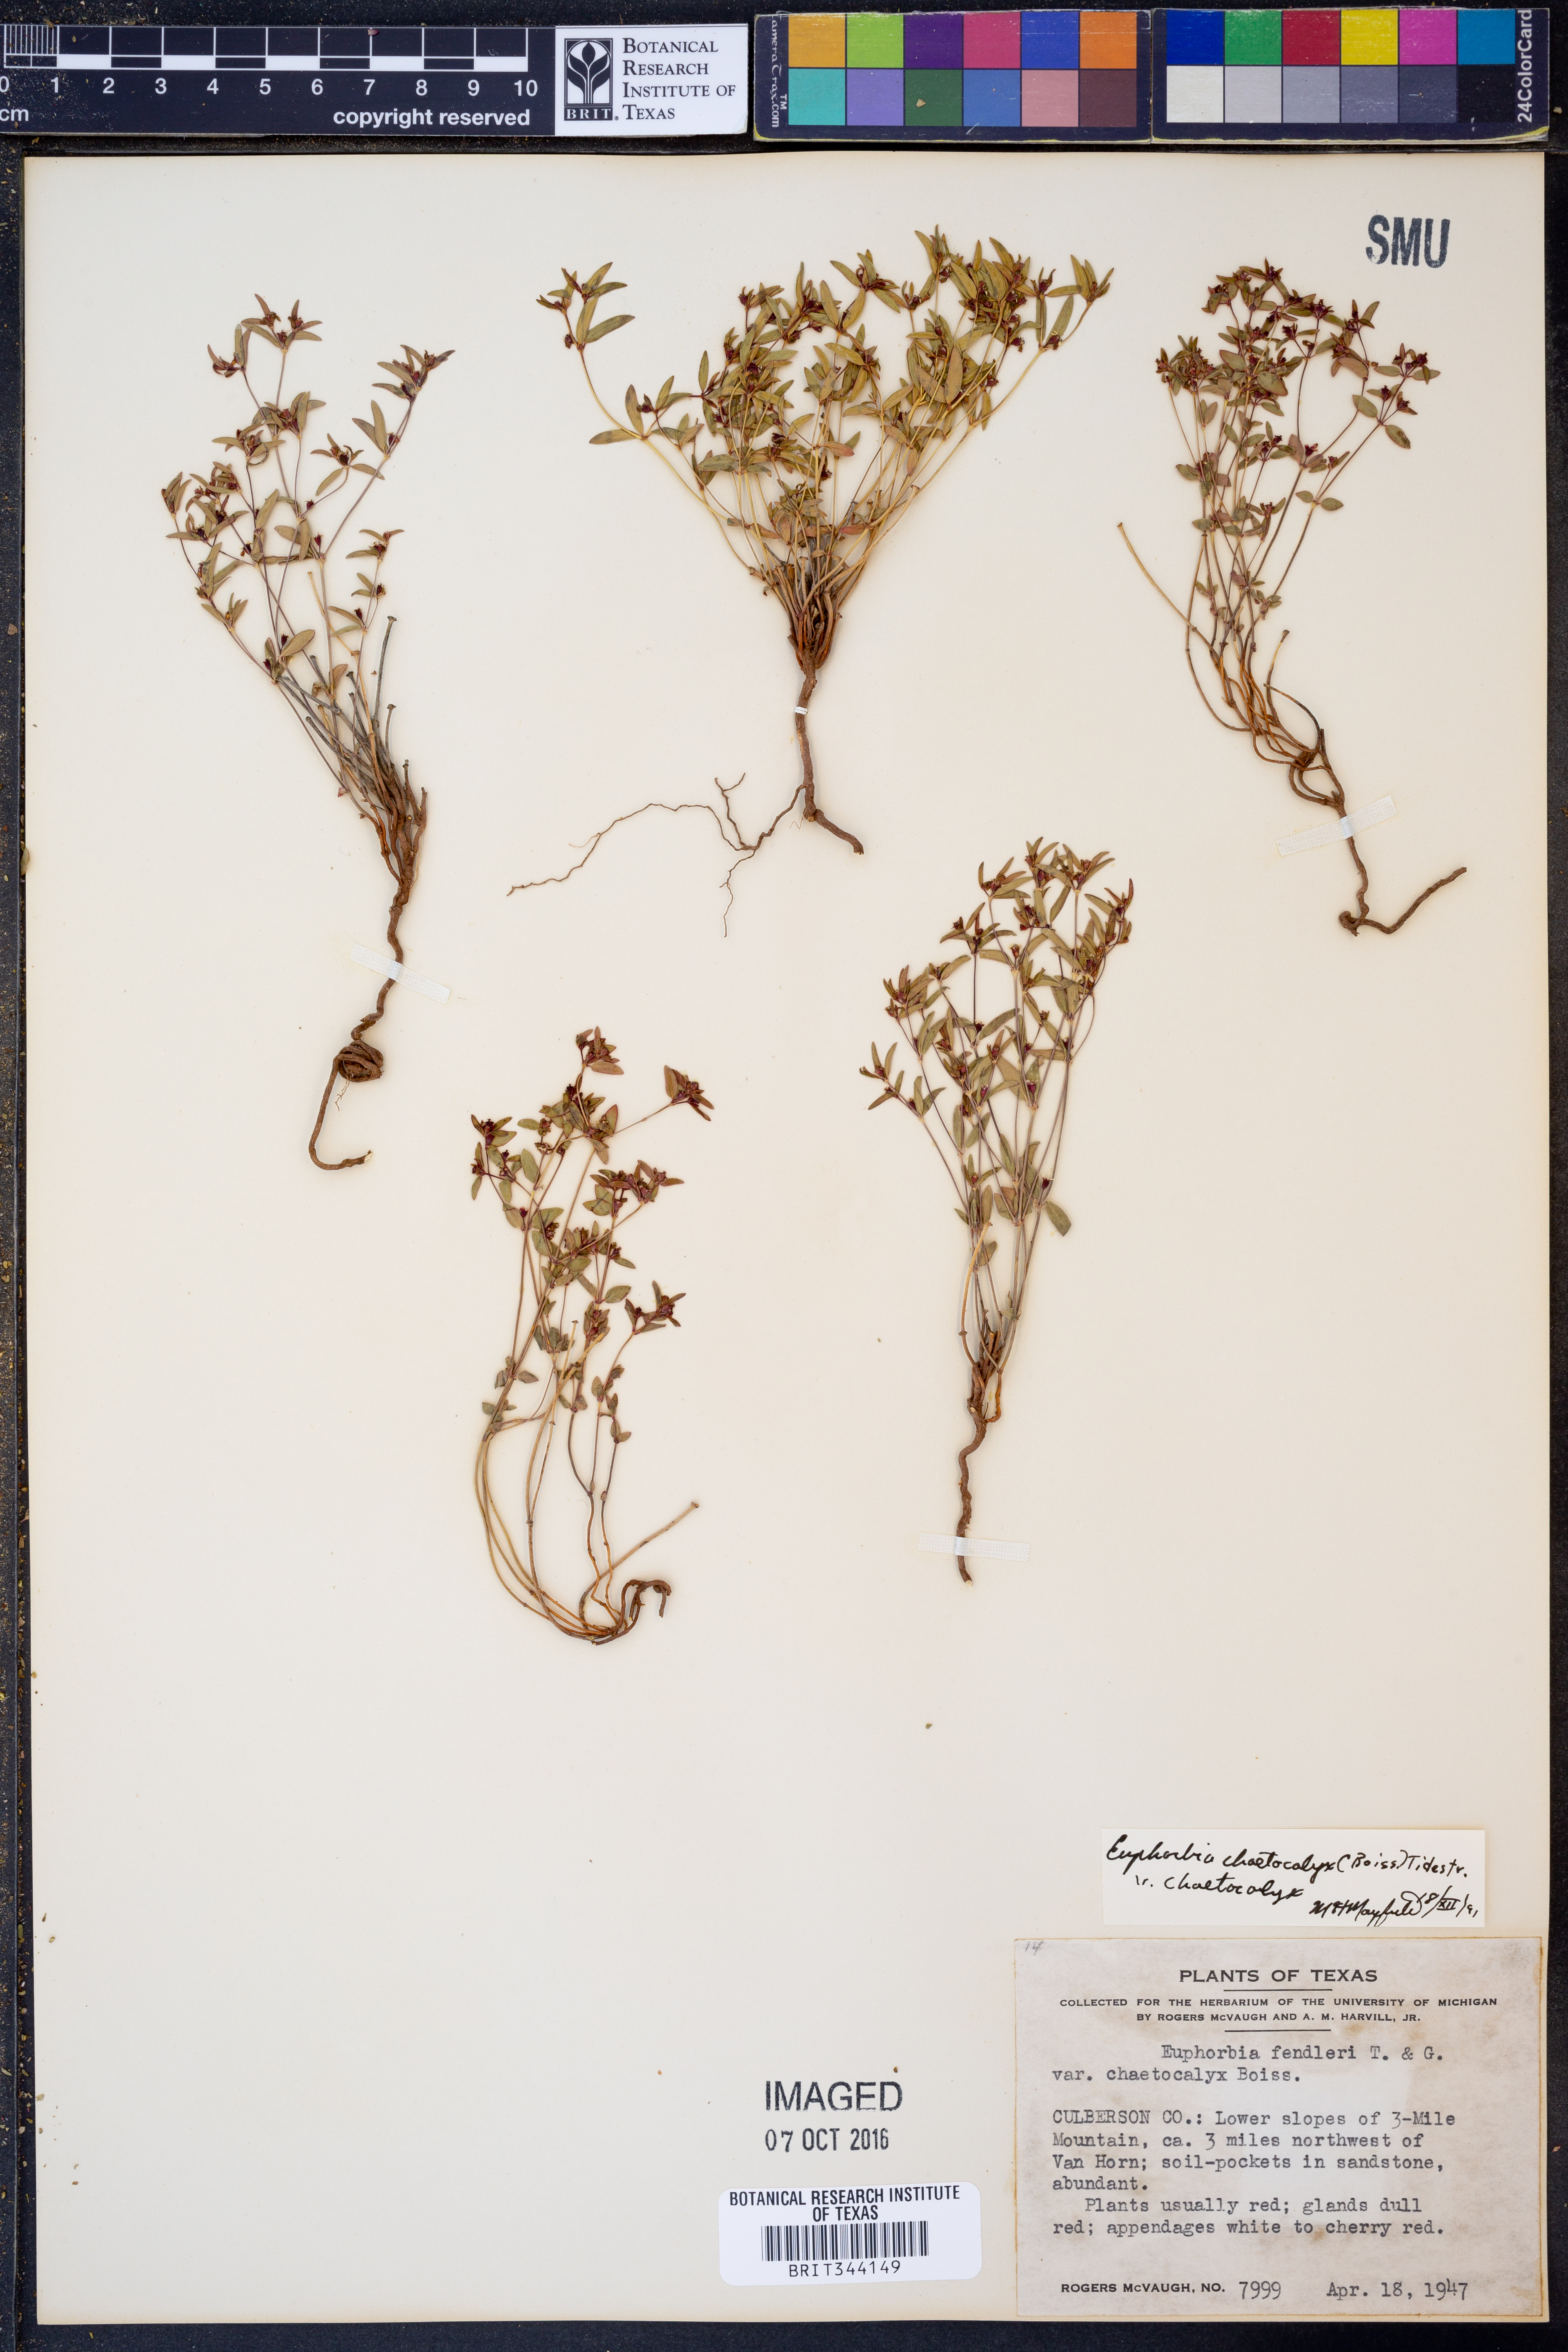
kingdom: Plantae
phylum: Tracheophyta
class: Magnoliopsida
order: Malpighiales
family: Euphorbiaceae
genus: Euphorbia
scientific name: Euphorbia chaetocalyx
